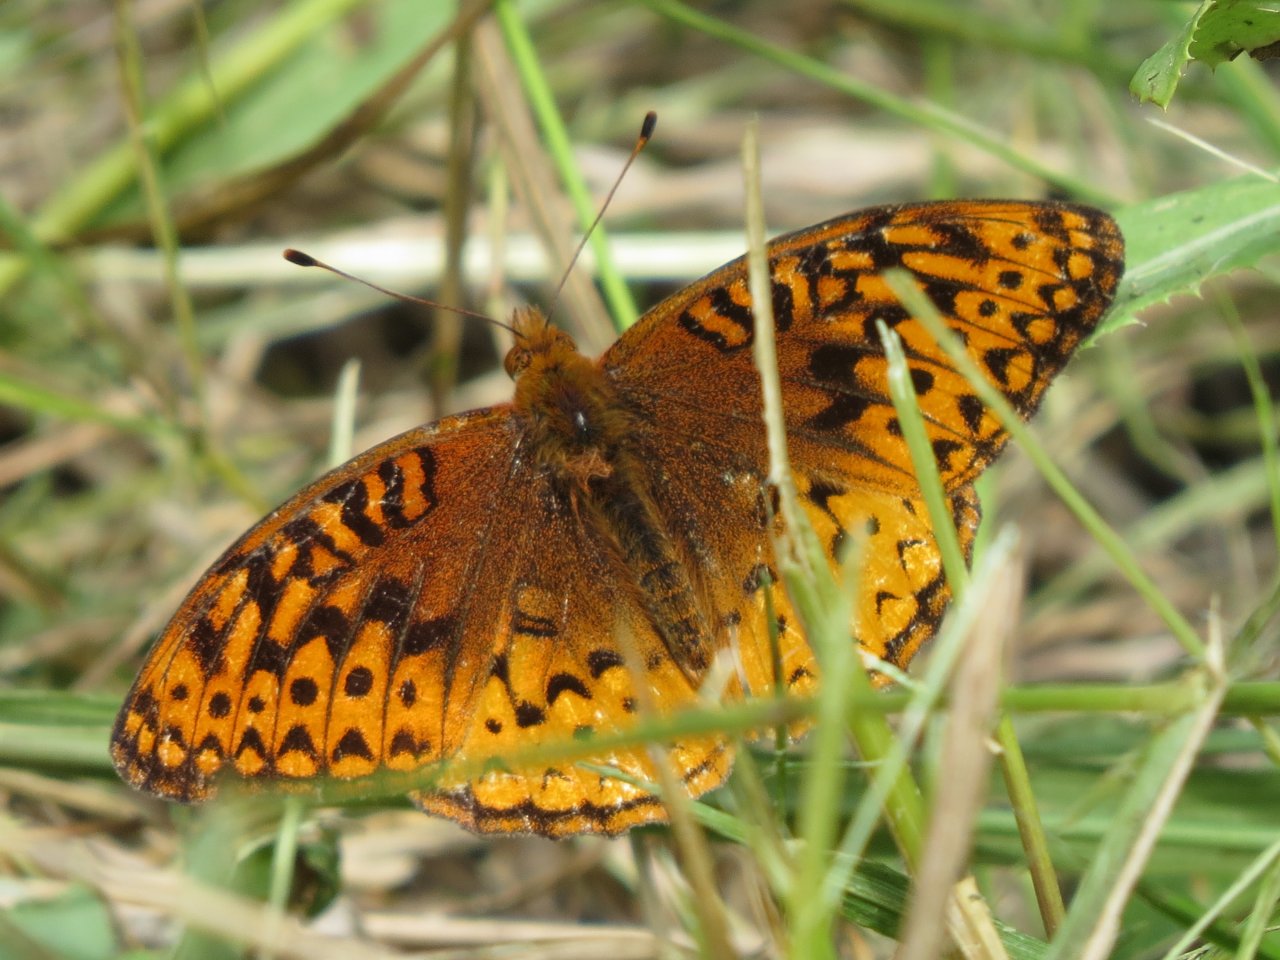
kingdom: Animalia
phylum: Arthropoda
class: Insecta
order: Lepidoptera
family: Nymphalidae
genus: Speyeria
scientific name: Speyeria cybele
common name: Great Spangled Fritillary
